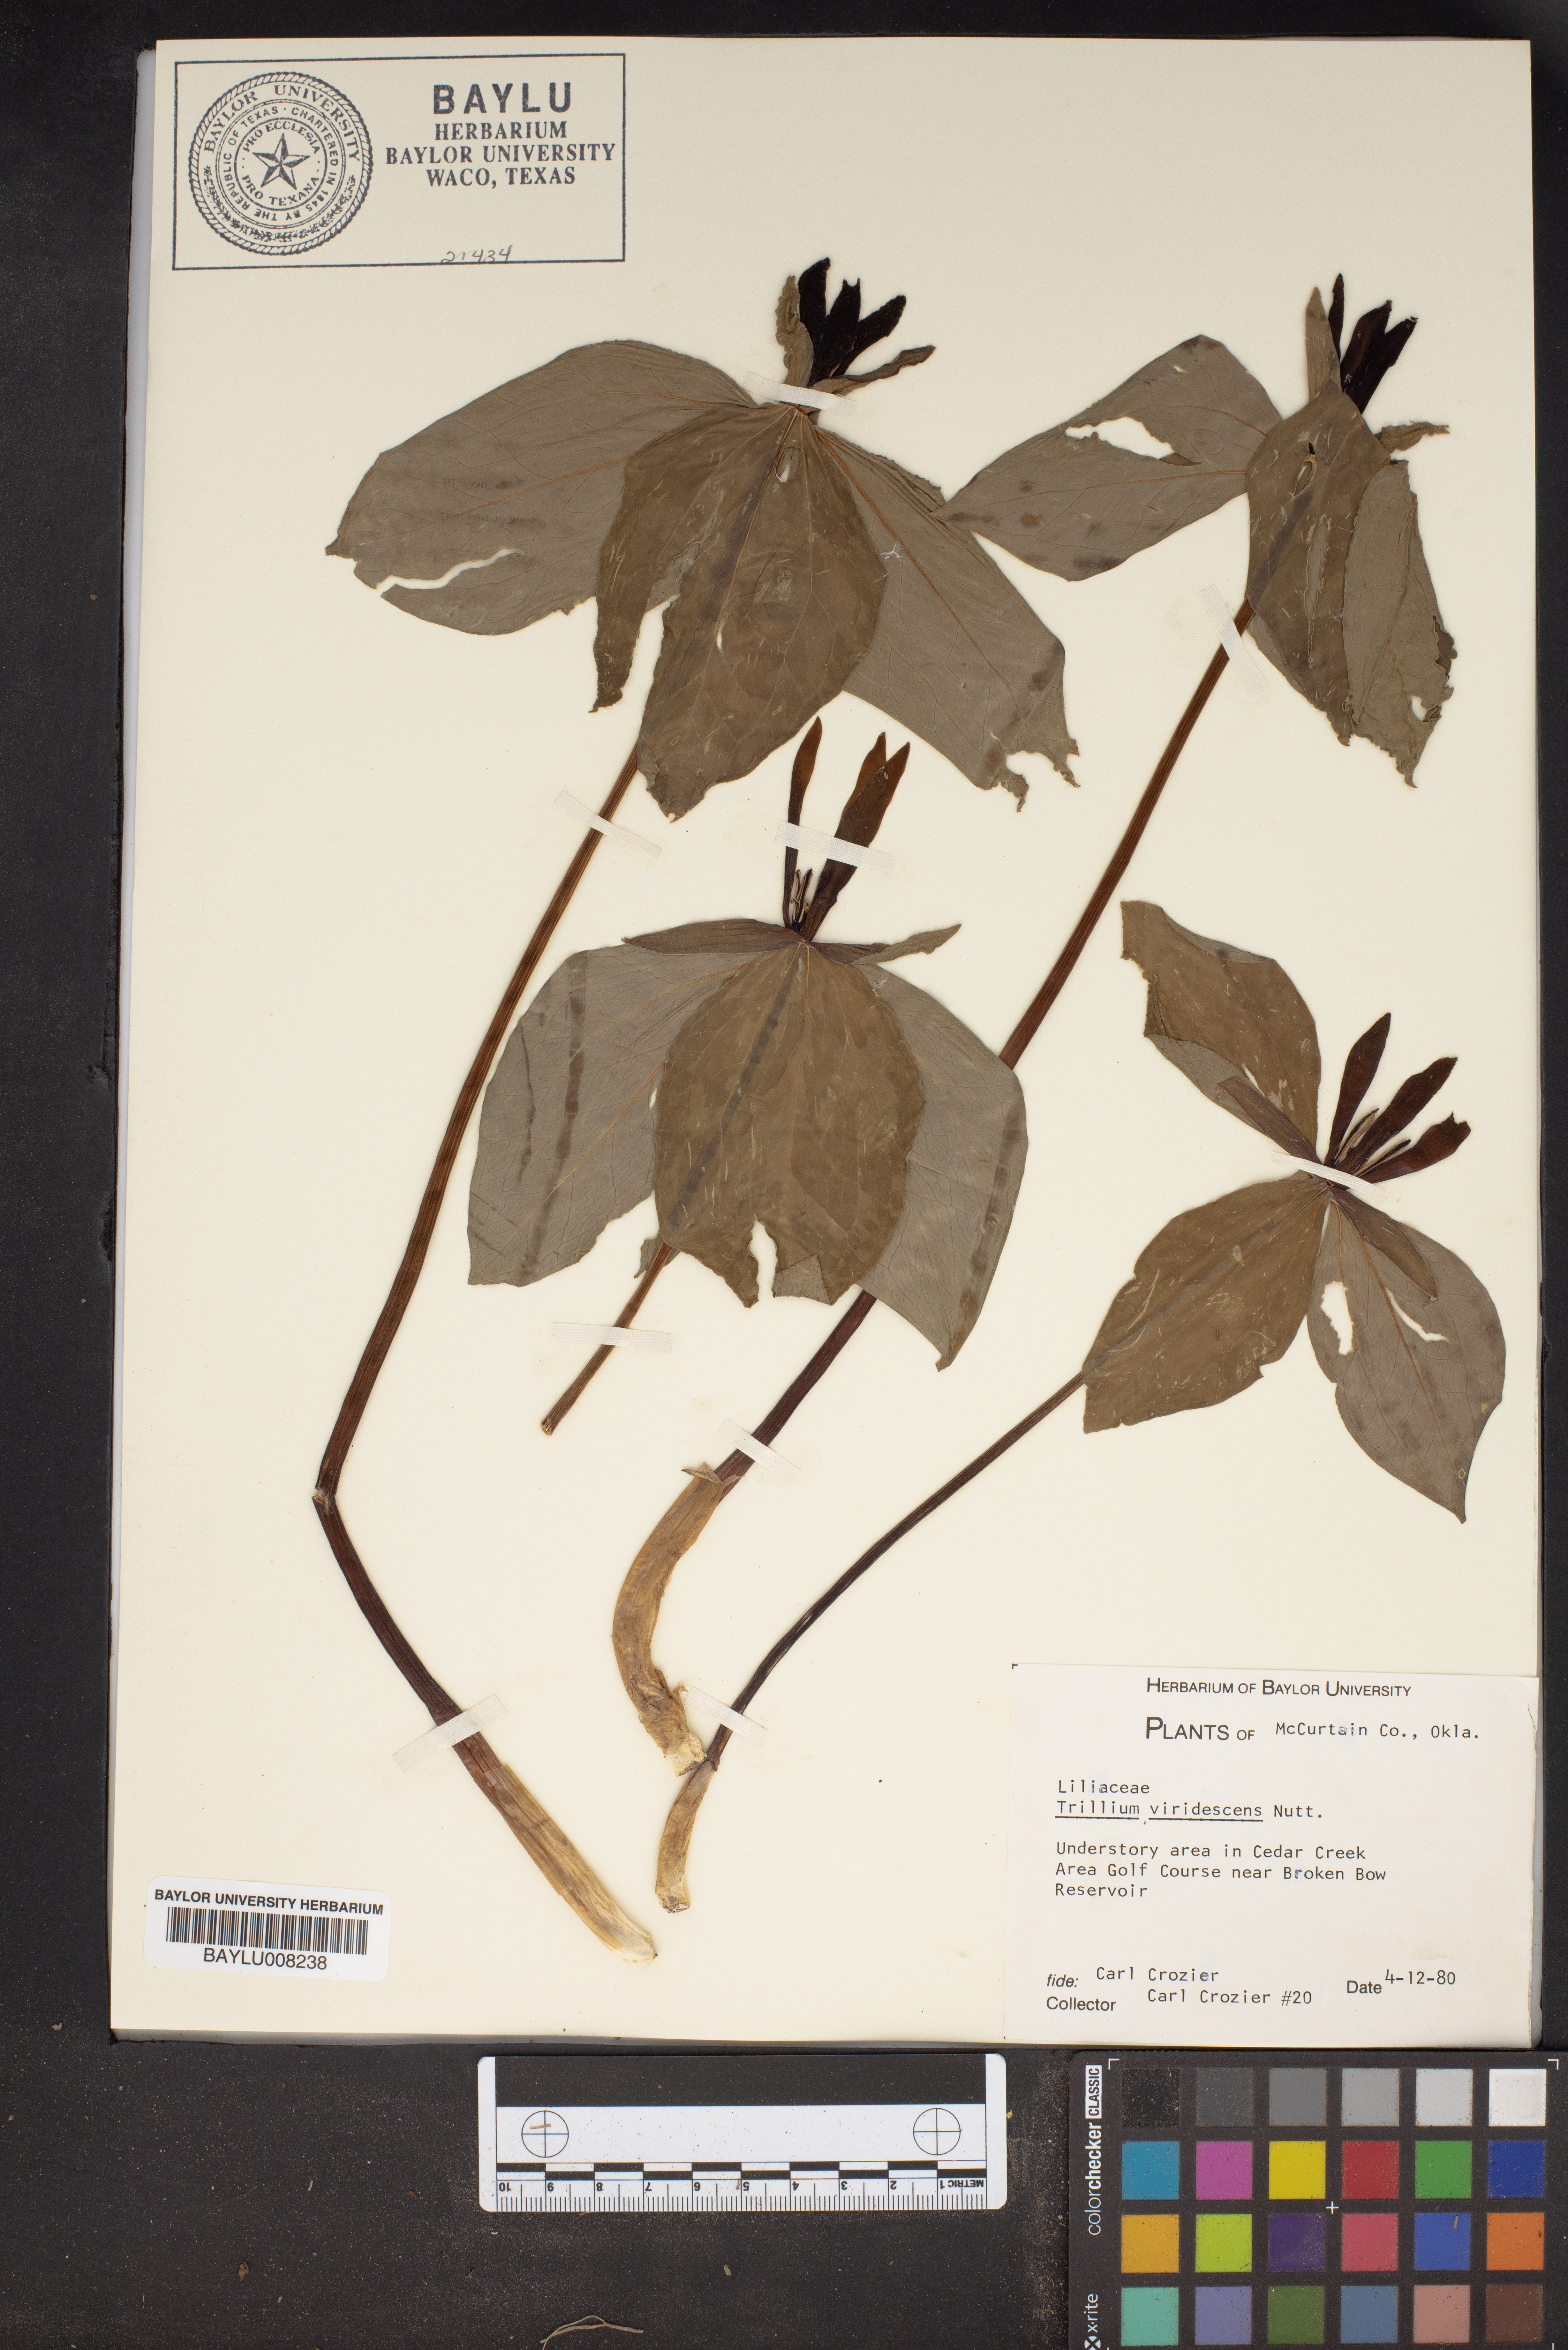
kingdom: Plantae
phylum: Tracheophyta
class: Liliopsida
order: Liliales
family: Melanthiaceae
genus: Trillium
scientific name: Trillium viridescens
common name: Ozark green trillium
